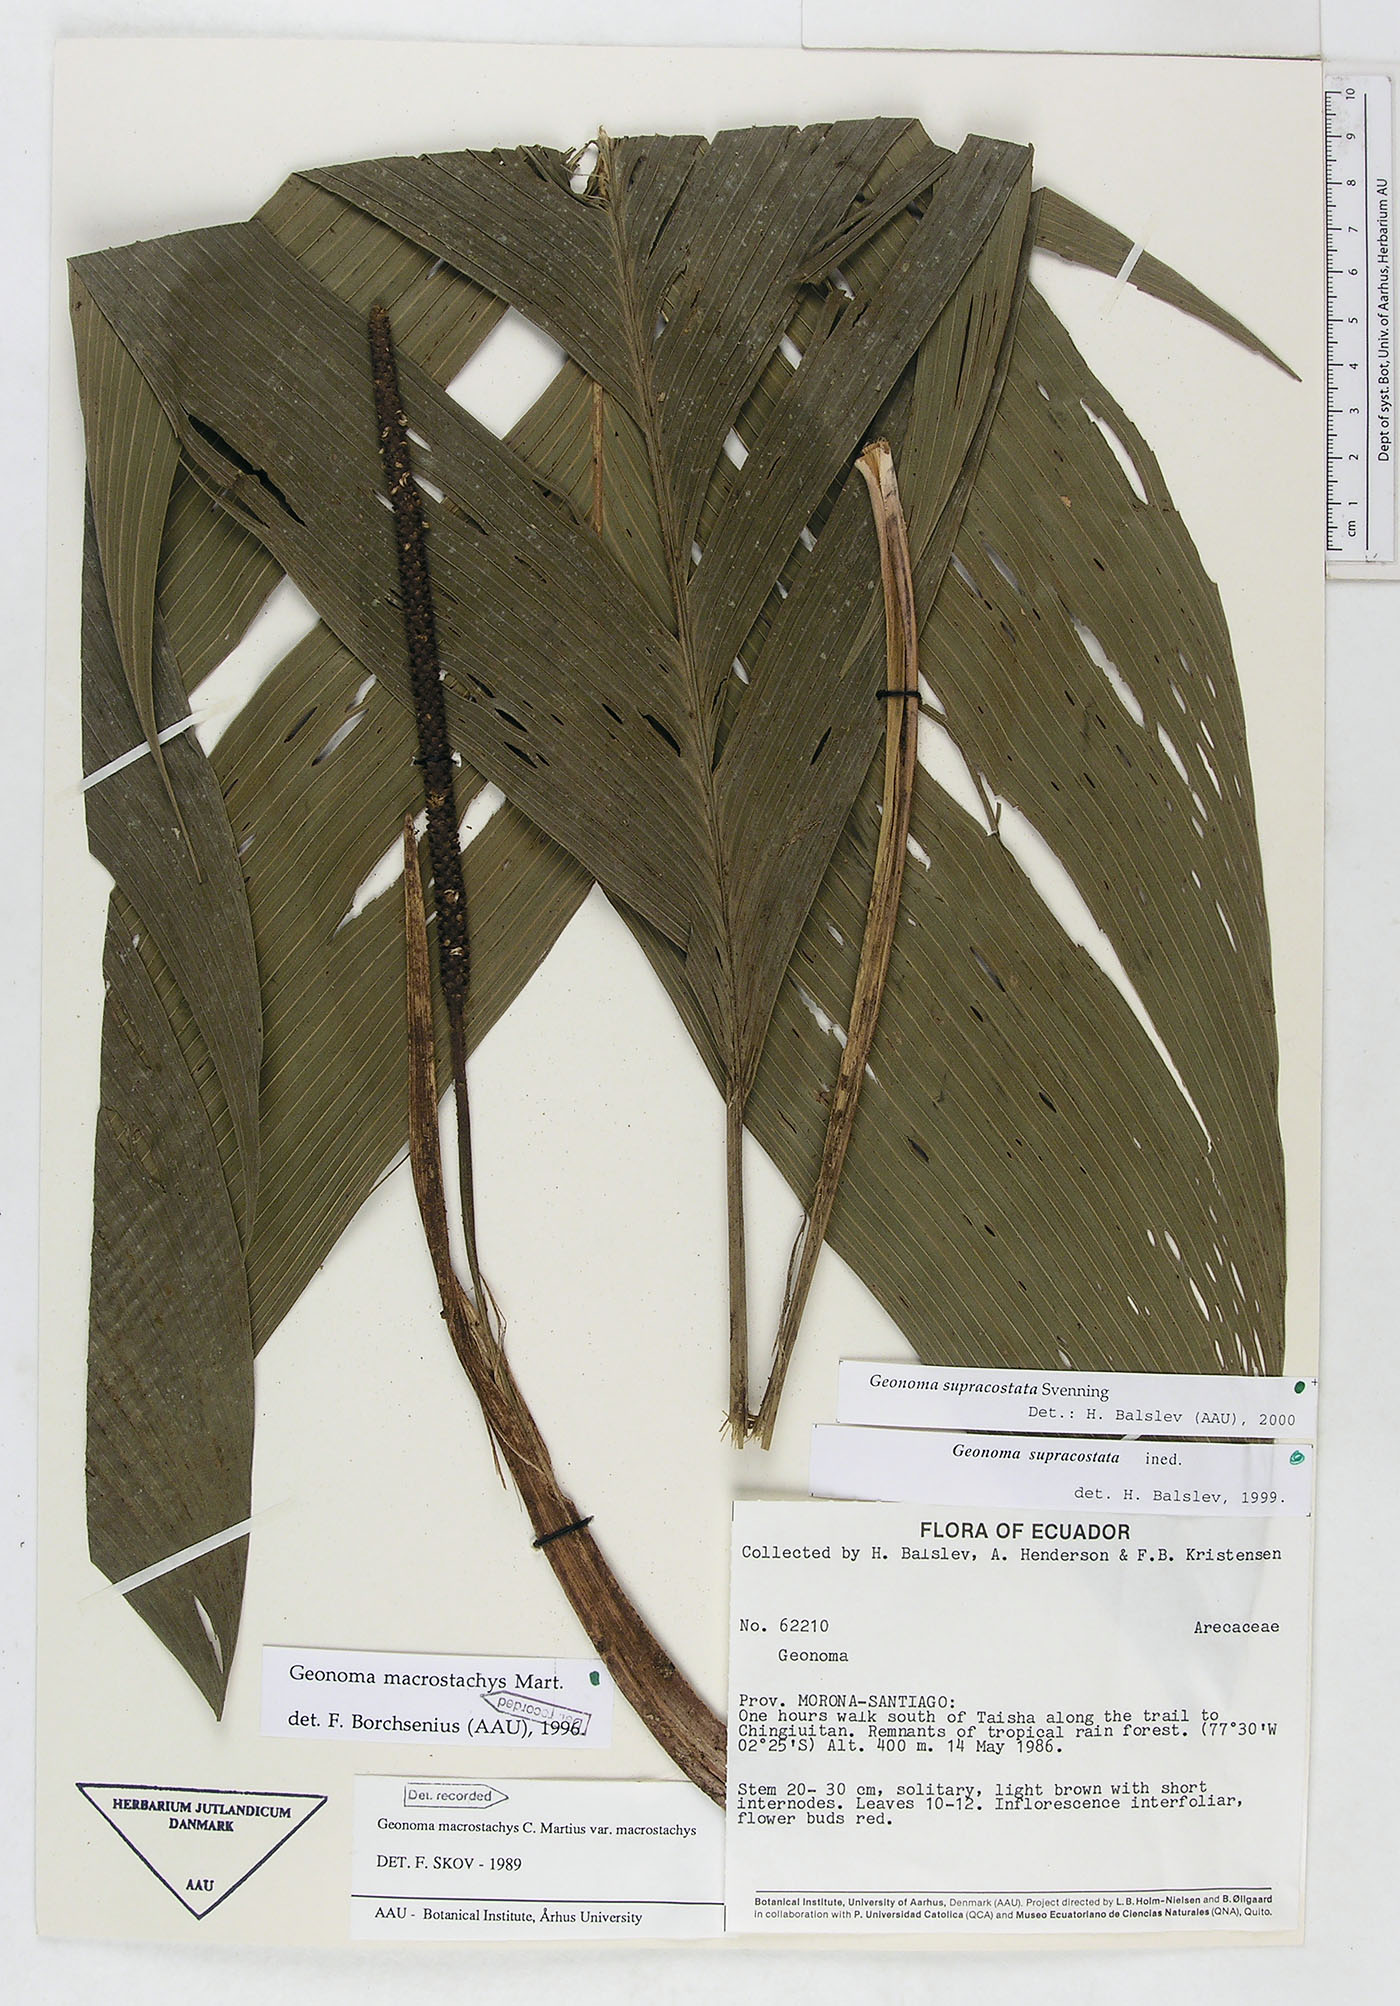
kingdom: Plantae
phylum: Tracheophyta
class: Liliopsida
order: Arecales
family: Arecaceae
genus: Geonoma
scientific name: Geonoma macrostachys
